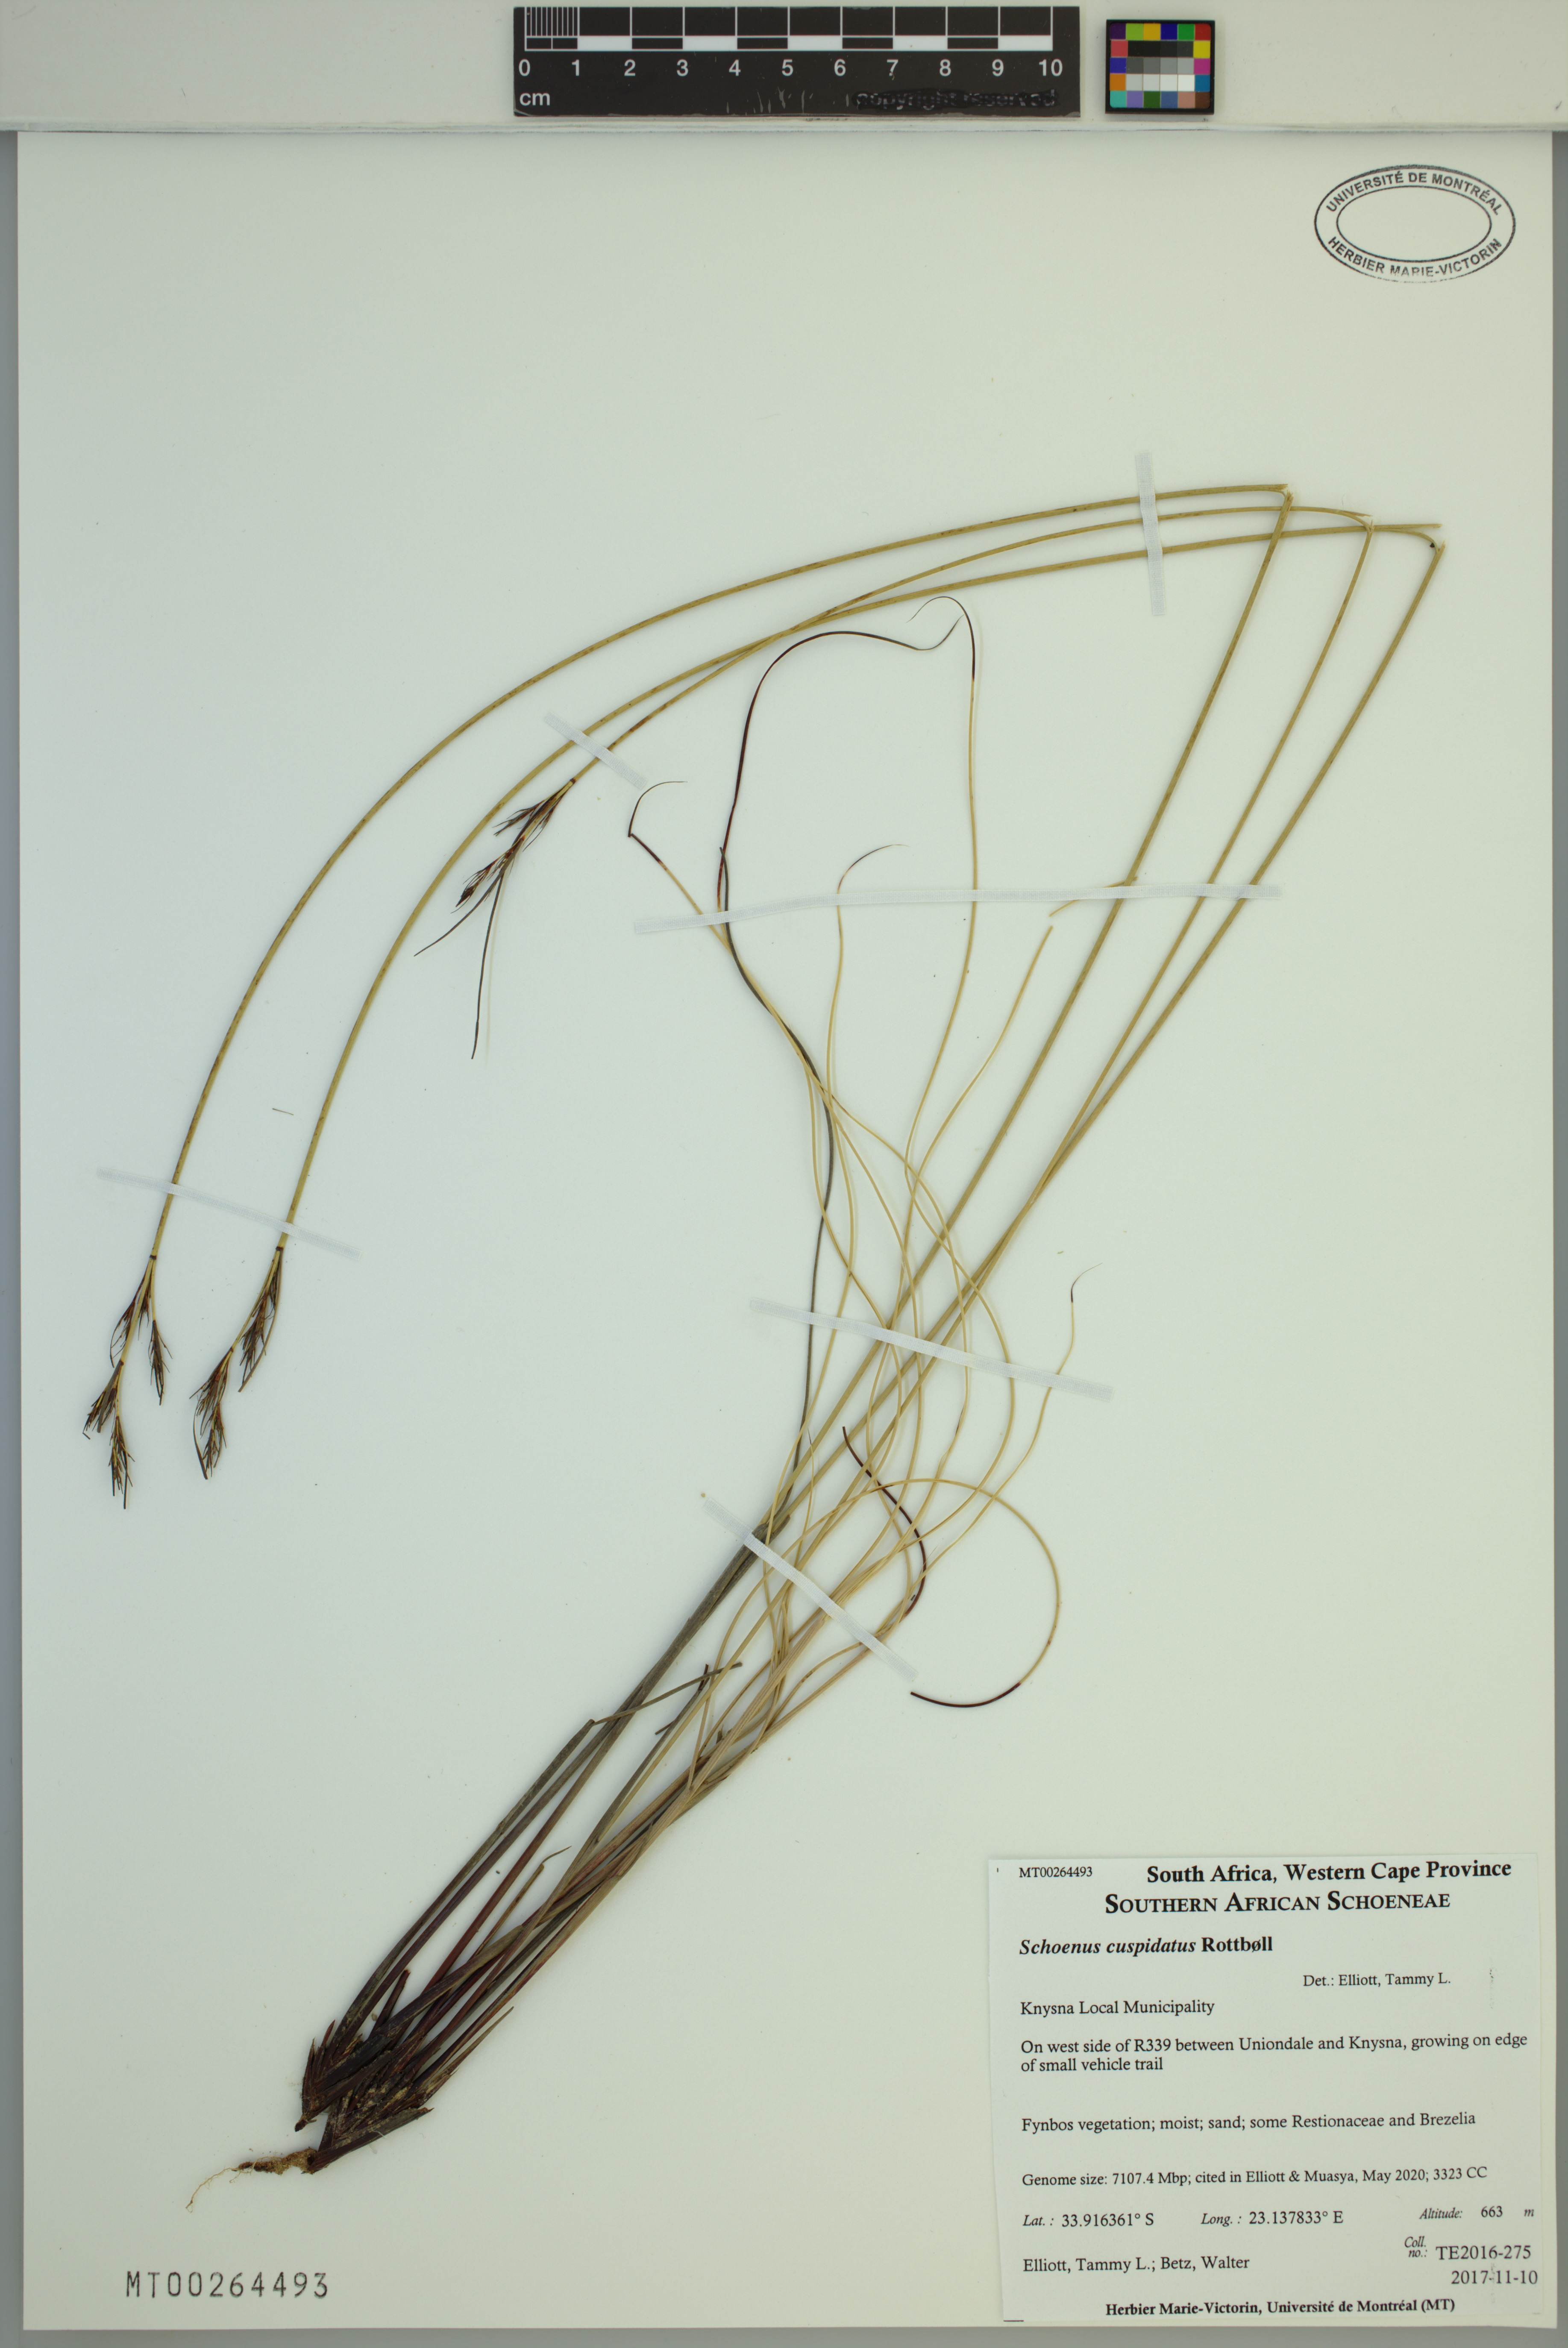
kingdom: Plantae
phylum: Tracheophyta
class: Liliopsida
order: Poales
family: Cyperaceae
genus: Schoenus
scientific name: Schoenus cuspidatus
